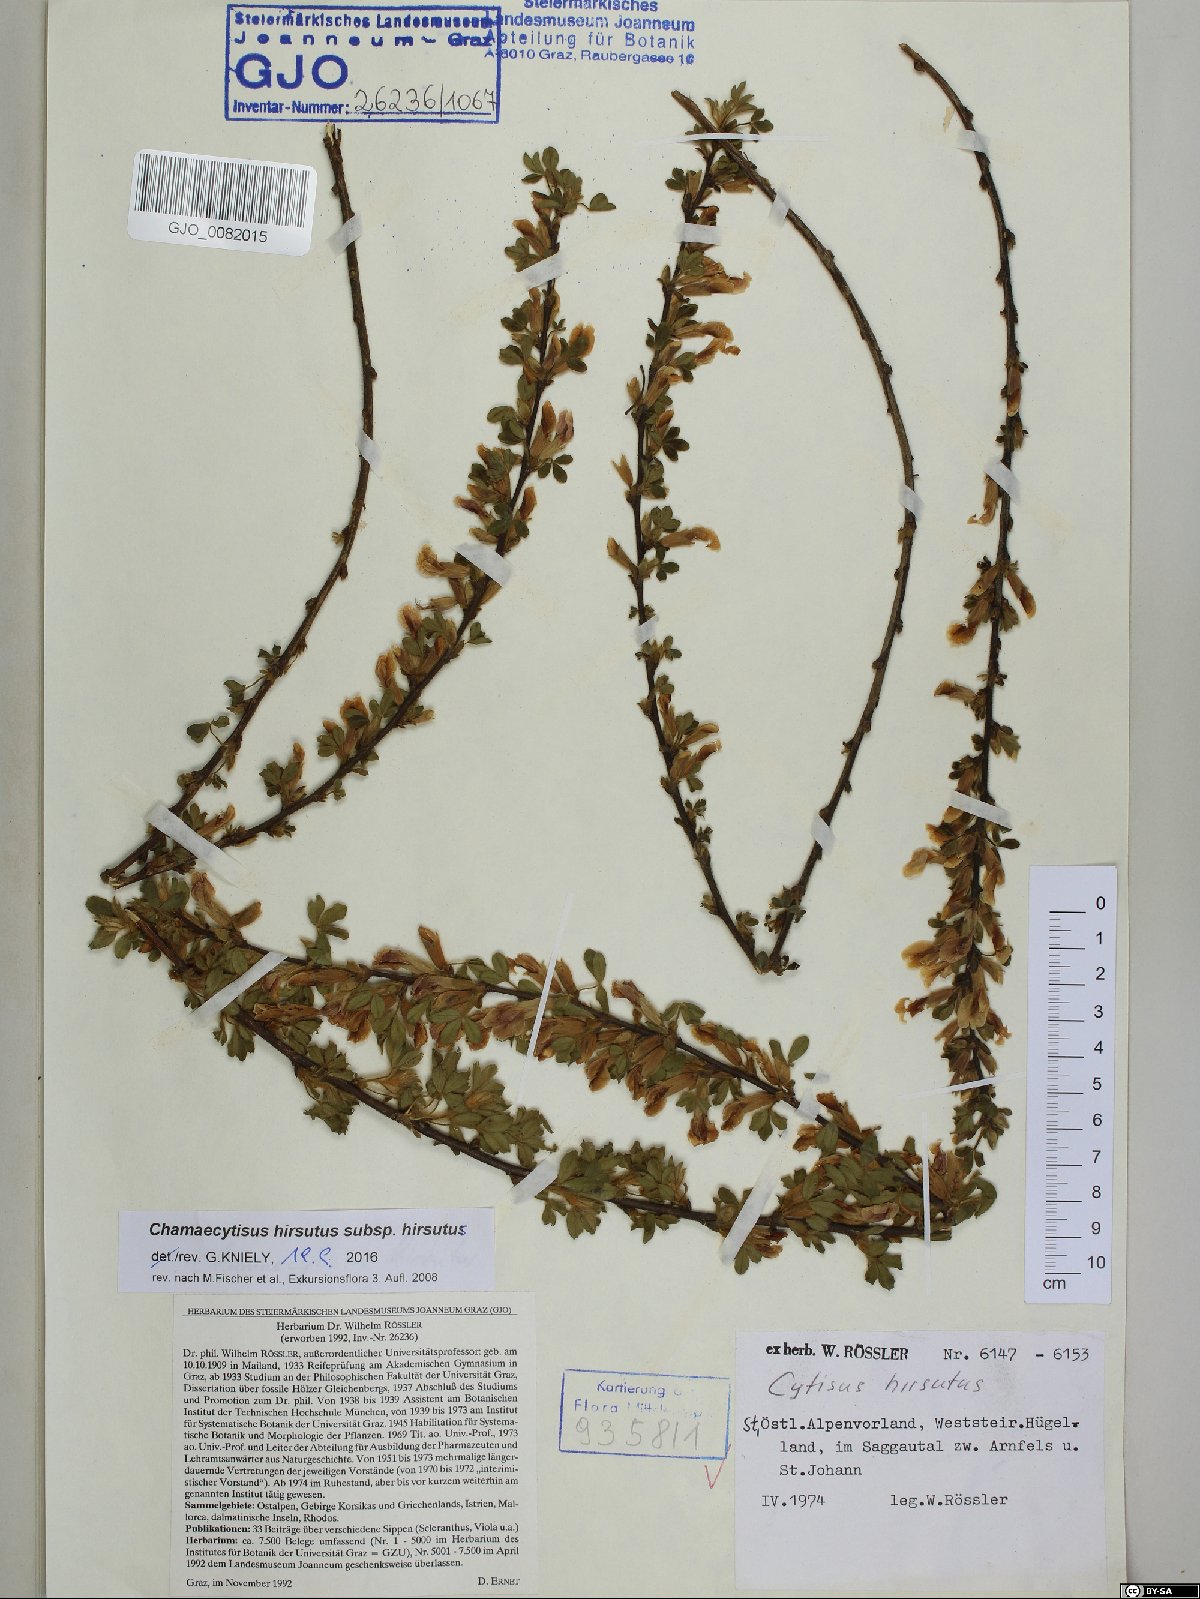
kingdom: Plantae
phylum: Tracheophyta
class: Magnoliopsida
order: Fabales
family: Fabaceae
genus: Chamaecytisus
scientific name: Chamaecytisus hirsutus
